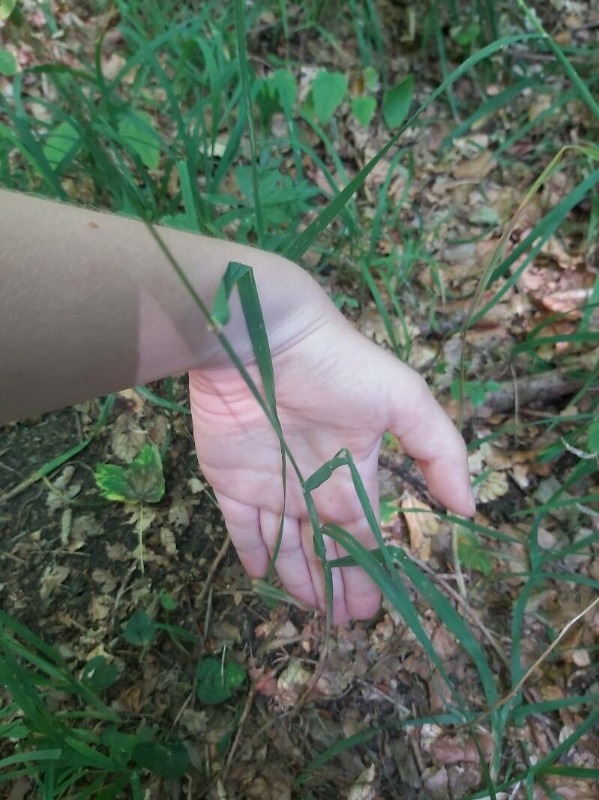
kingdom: Plantae
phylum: Tracheophyta
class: Liliopsida
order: Poales
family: Poaceae
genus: Dactylis
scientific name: Dactylis glomerata
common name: Almindelig hundegræs
